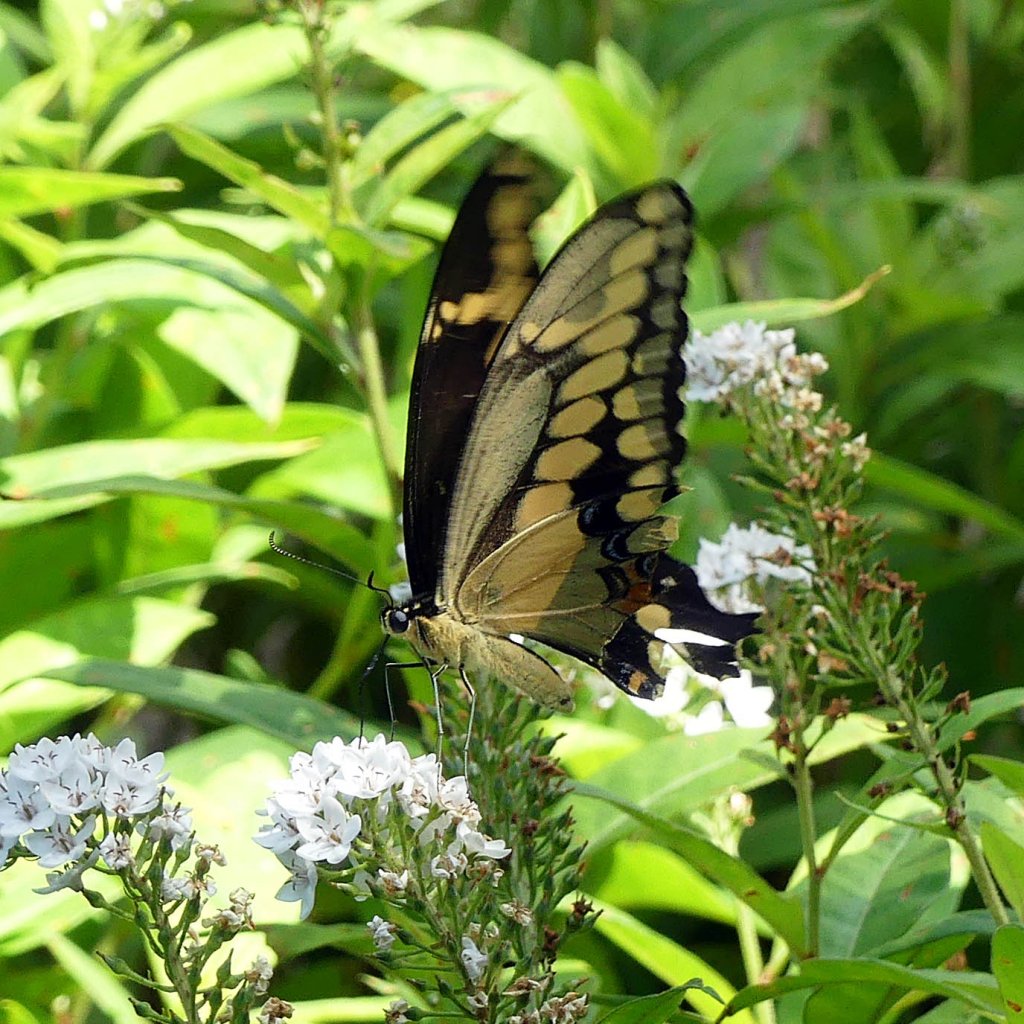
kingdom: Animalia
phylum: Arthropoda
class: Insecta
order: Lepidoptera
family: Papilionidae
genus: Papilio
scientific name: Papilio cresphontes
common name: Eastern Giant Swallowtail
